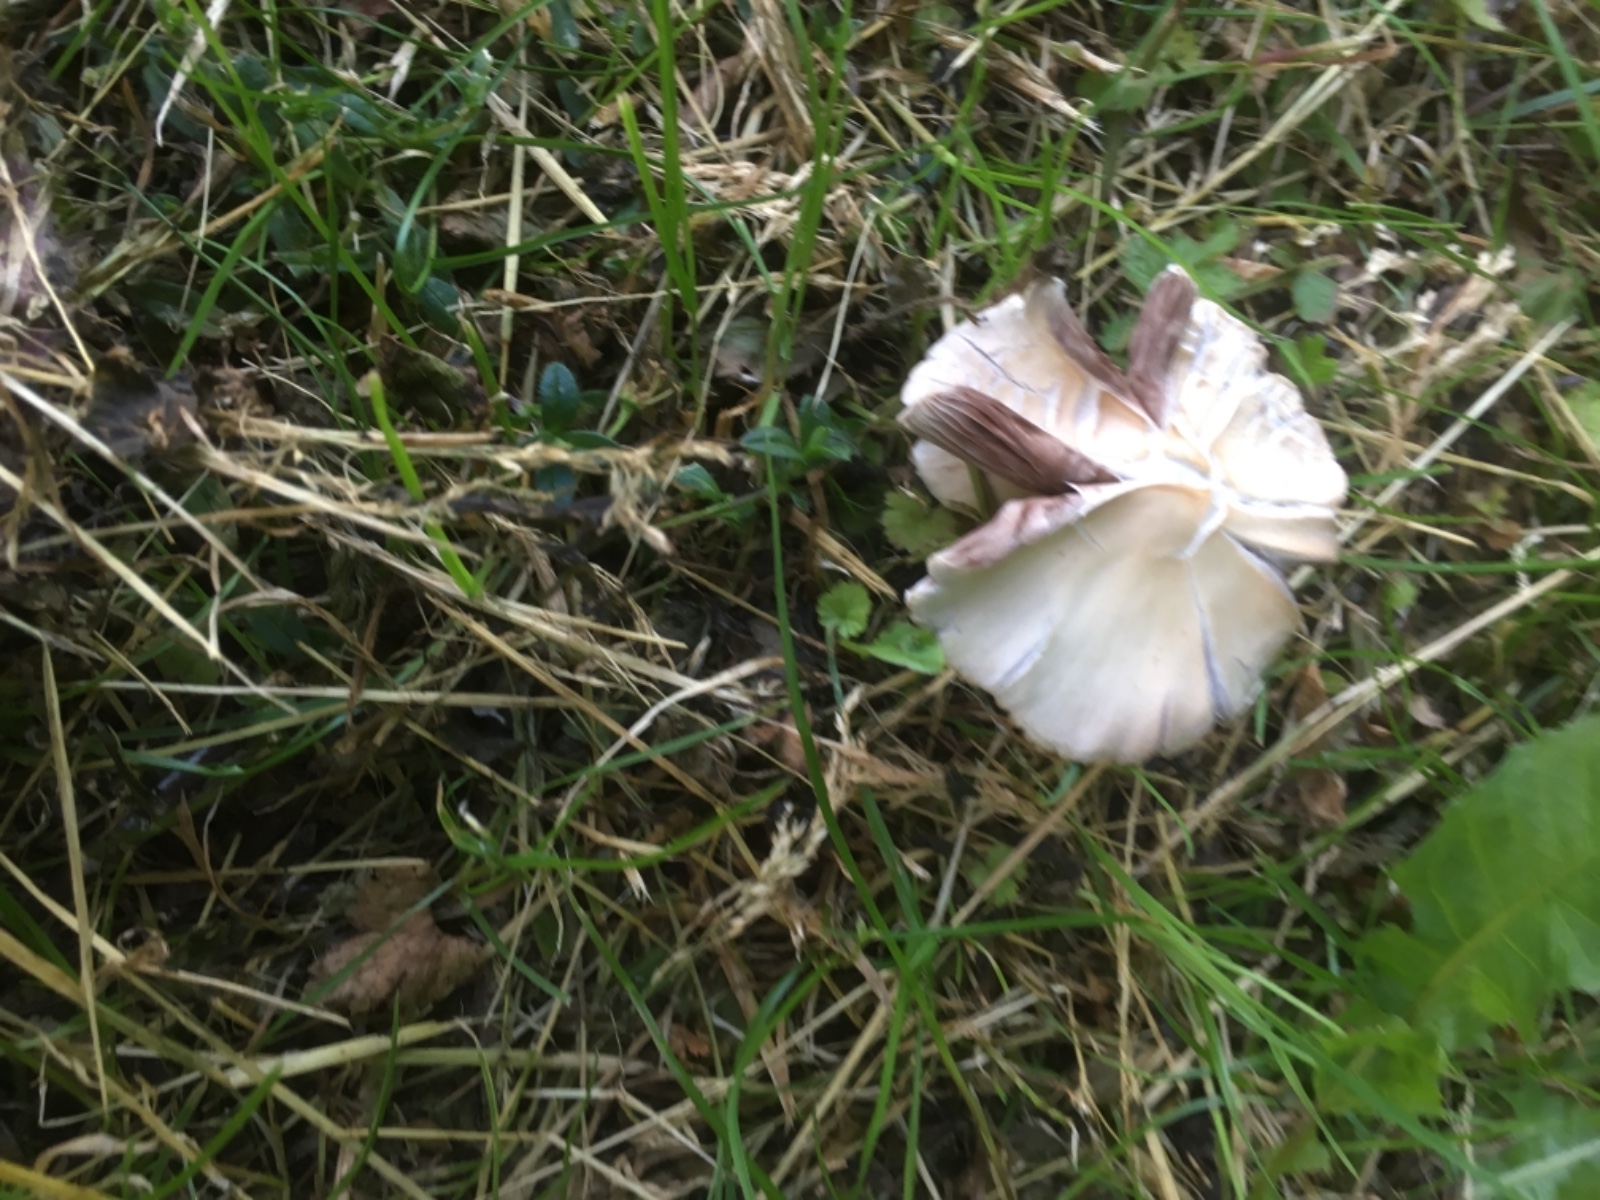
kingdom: Fungi
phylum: Basidiomycota
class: Agaricomycetes
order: Agaricales
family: Psathyrellaceae
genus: Candolleomyces
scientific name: Candolleomyces candolleanus
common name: Candolles mørkhat
